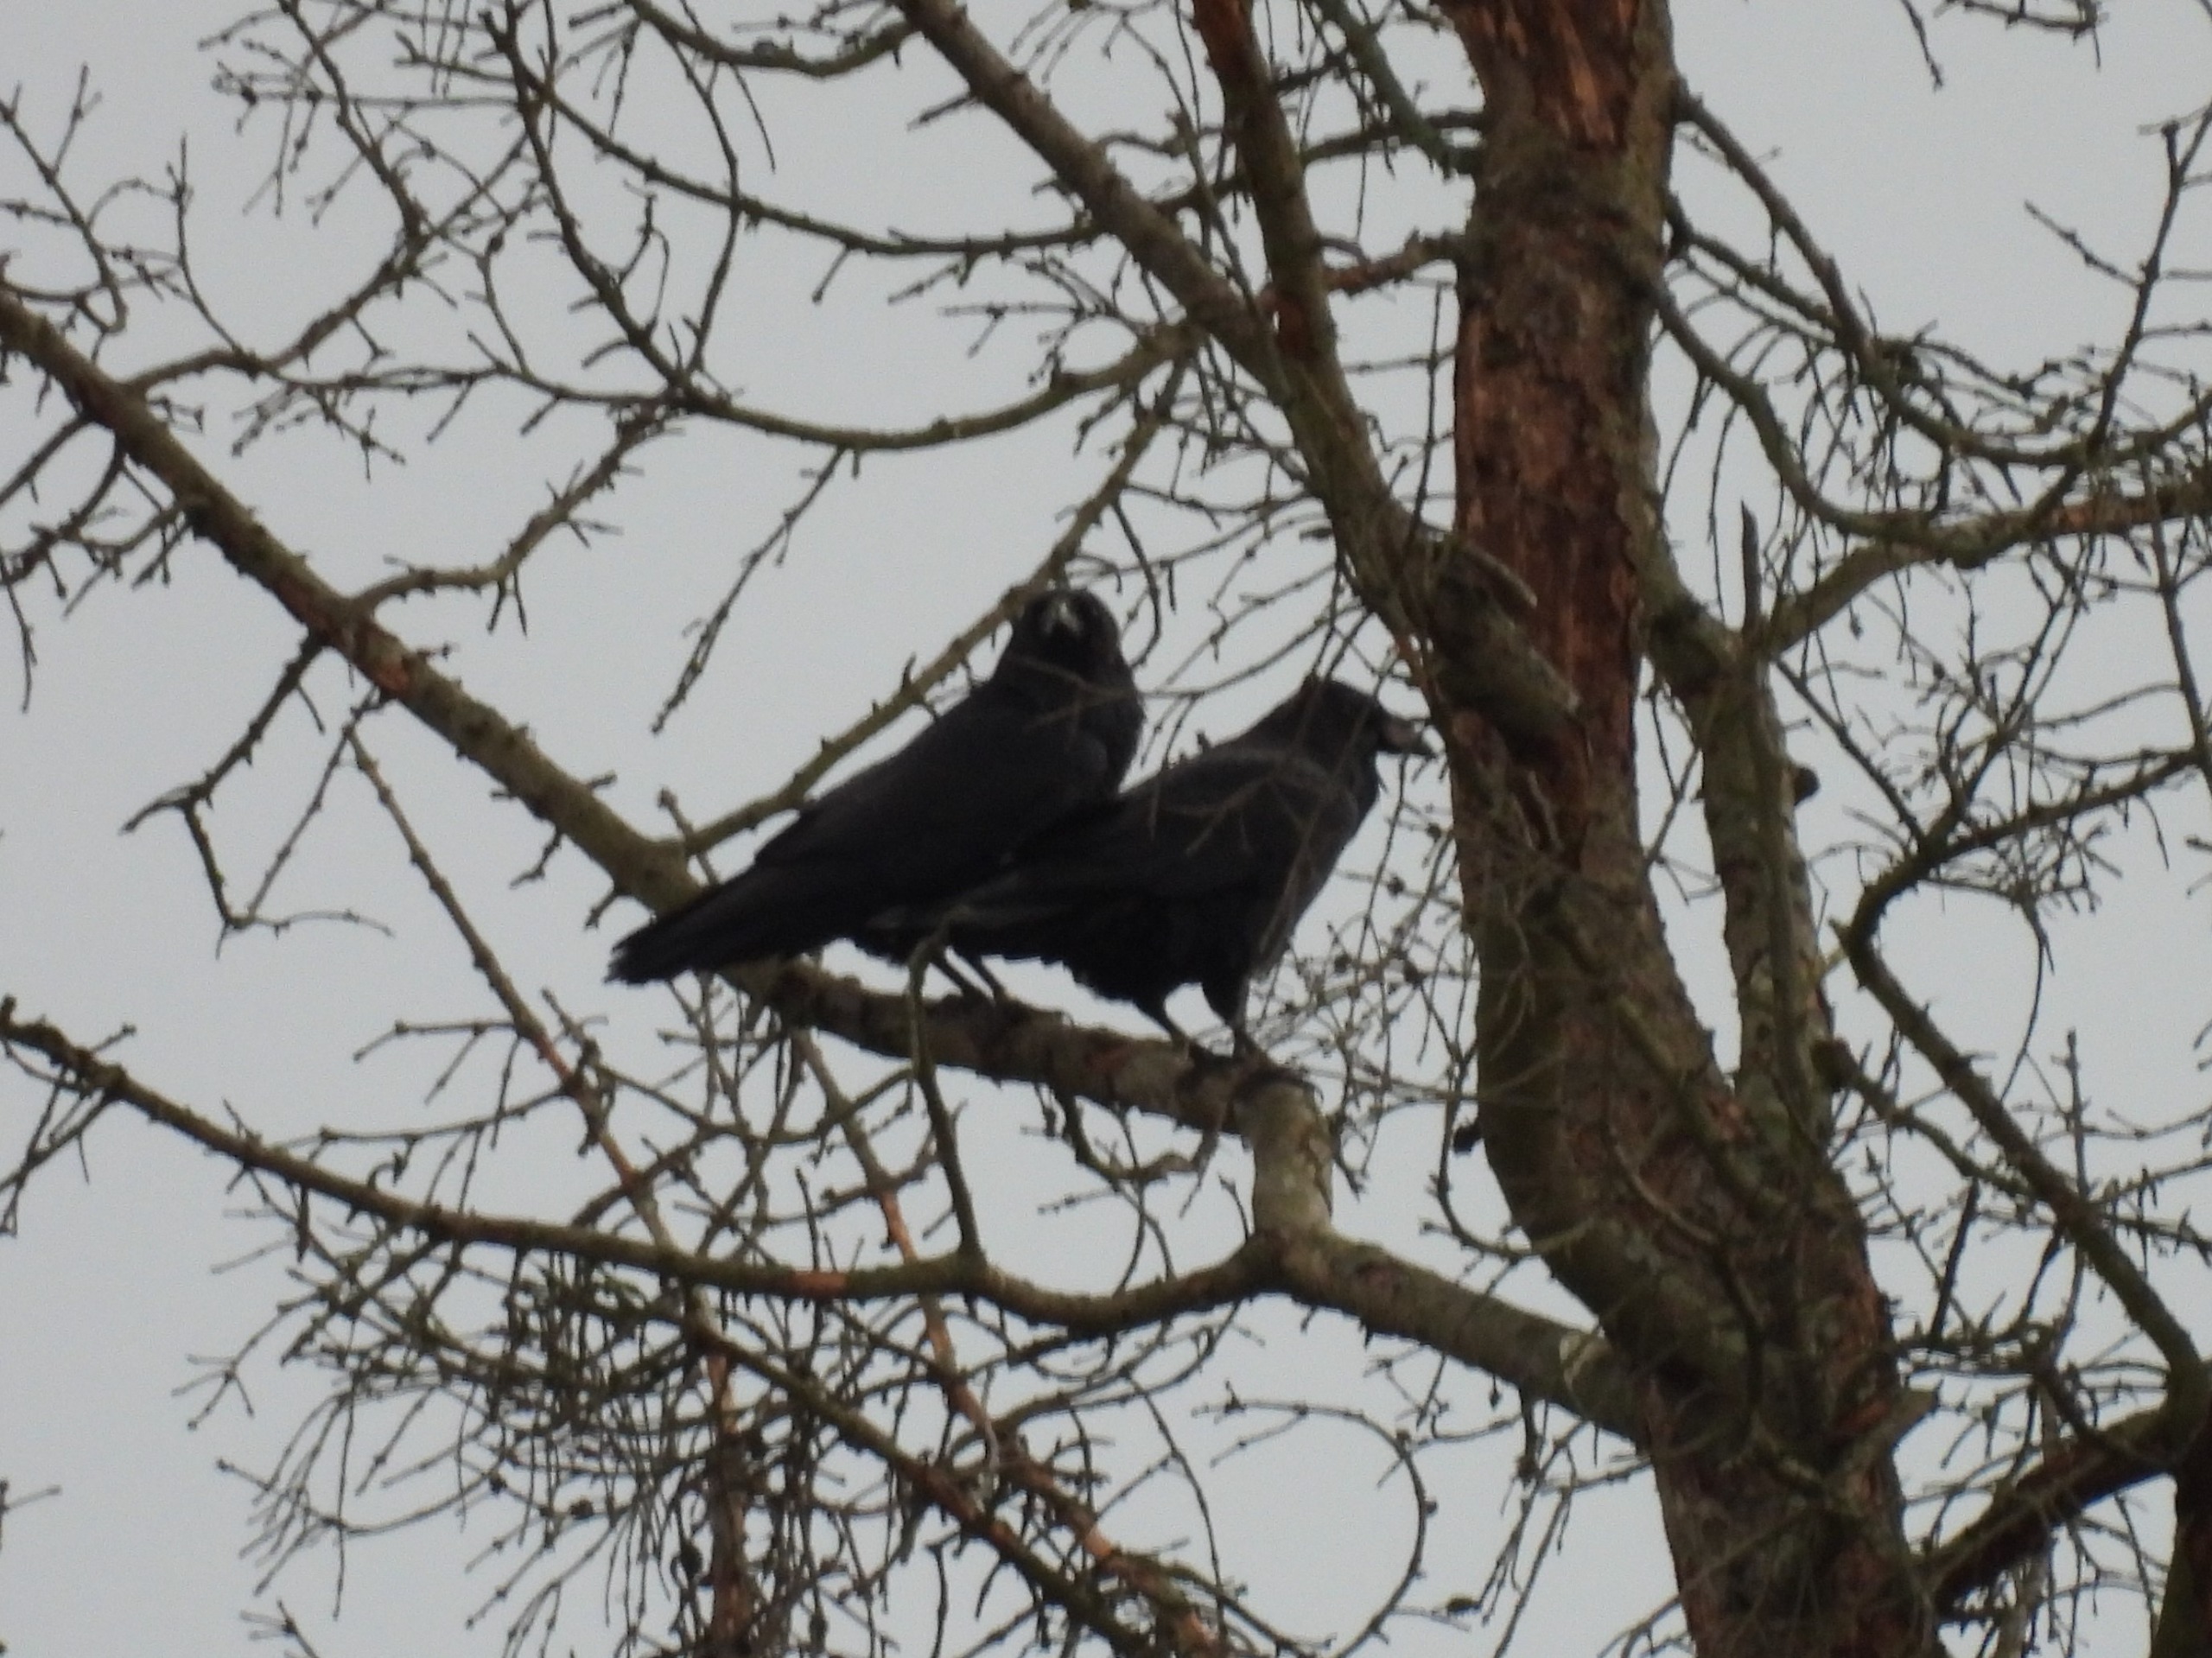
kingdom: Animalia
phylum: Chordata
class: Aves
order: Passeriformes
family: Corvidae
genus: Corvus
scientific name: Corvus corax
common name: Ravn
